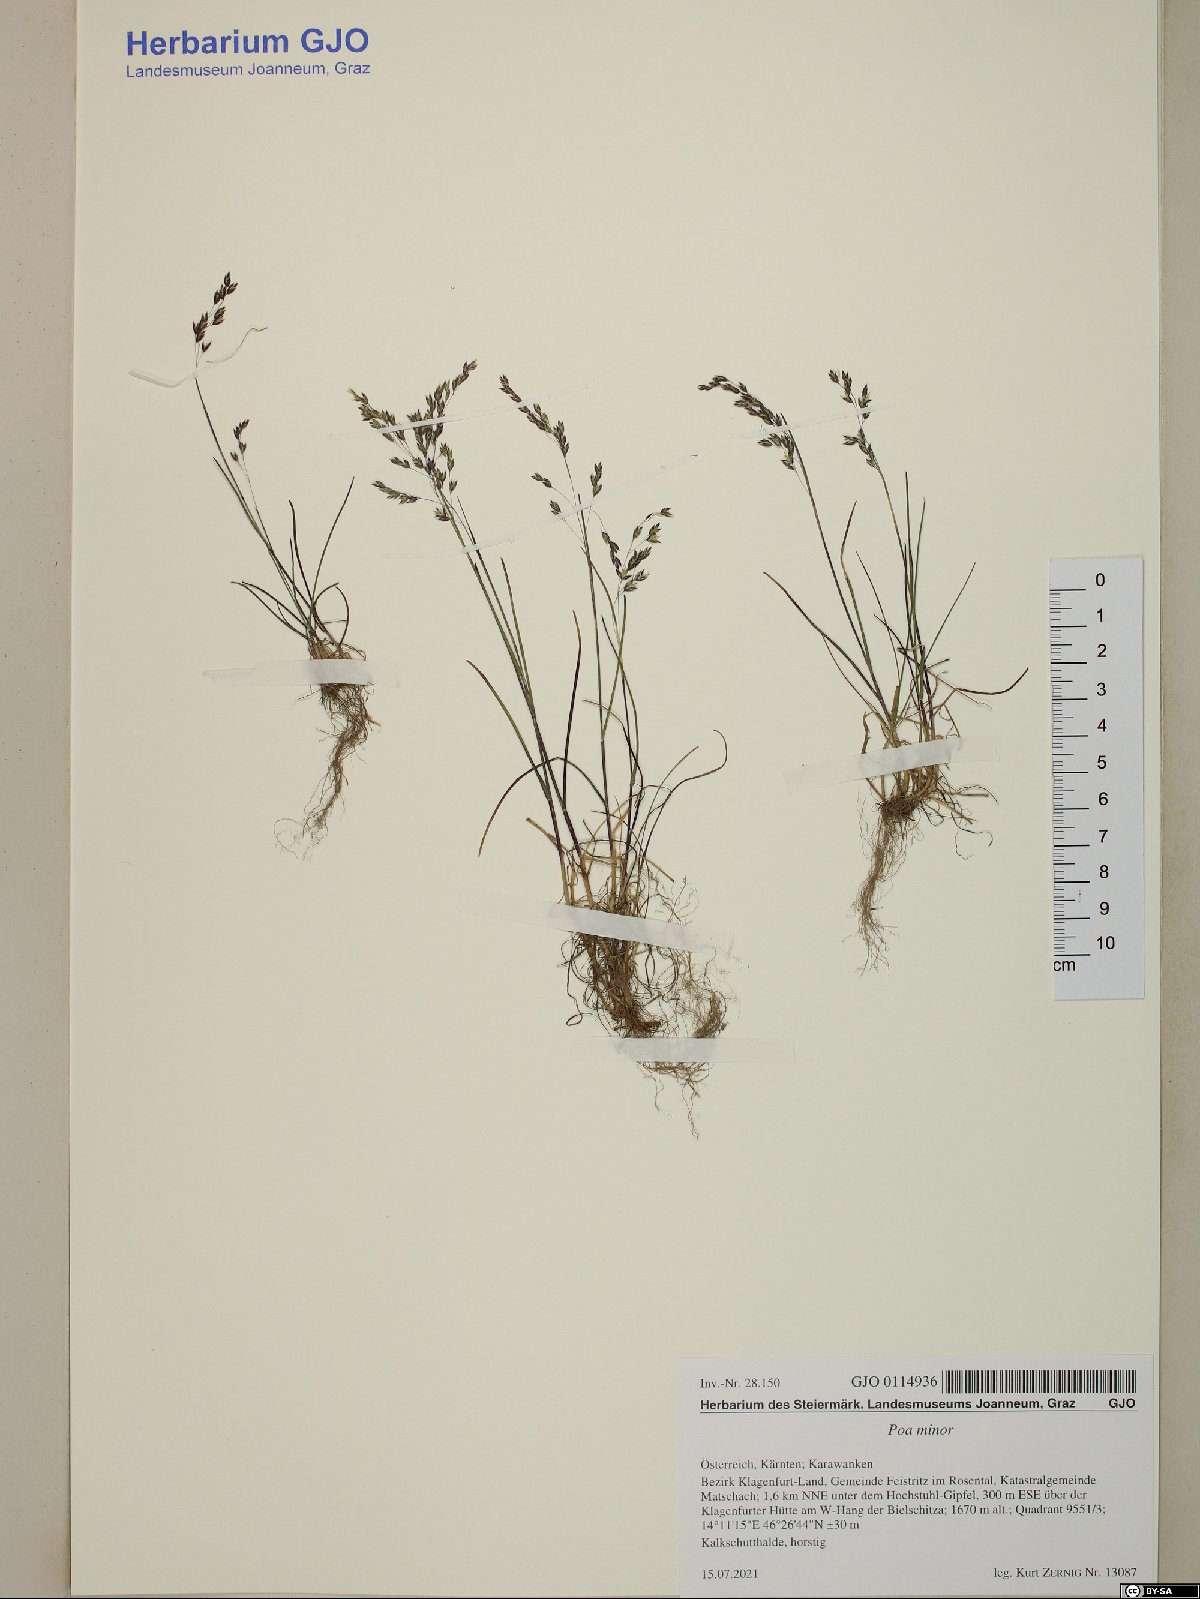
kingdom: Plantae
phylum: Tracheophyta
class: Liliopsida
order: Poales
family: Poaceae
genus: Poa
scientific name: Poa minor
